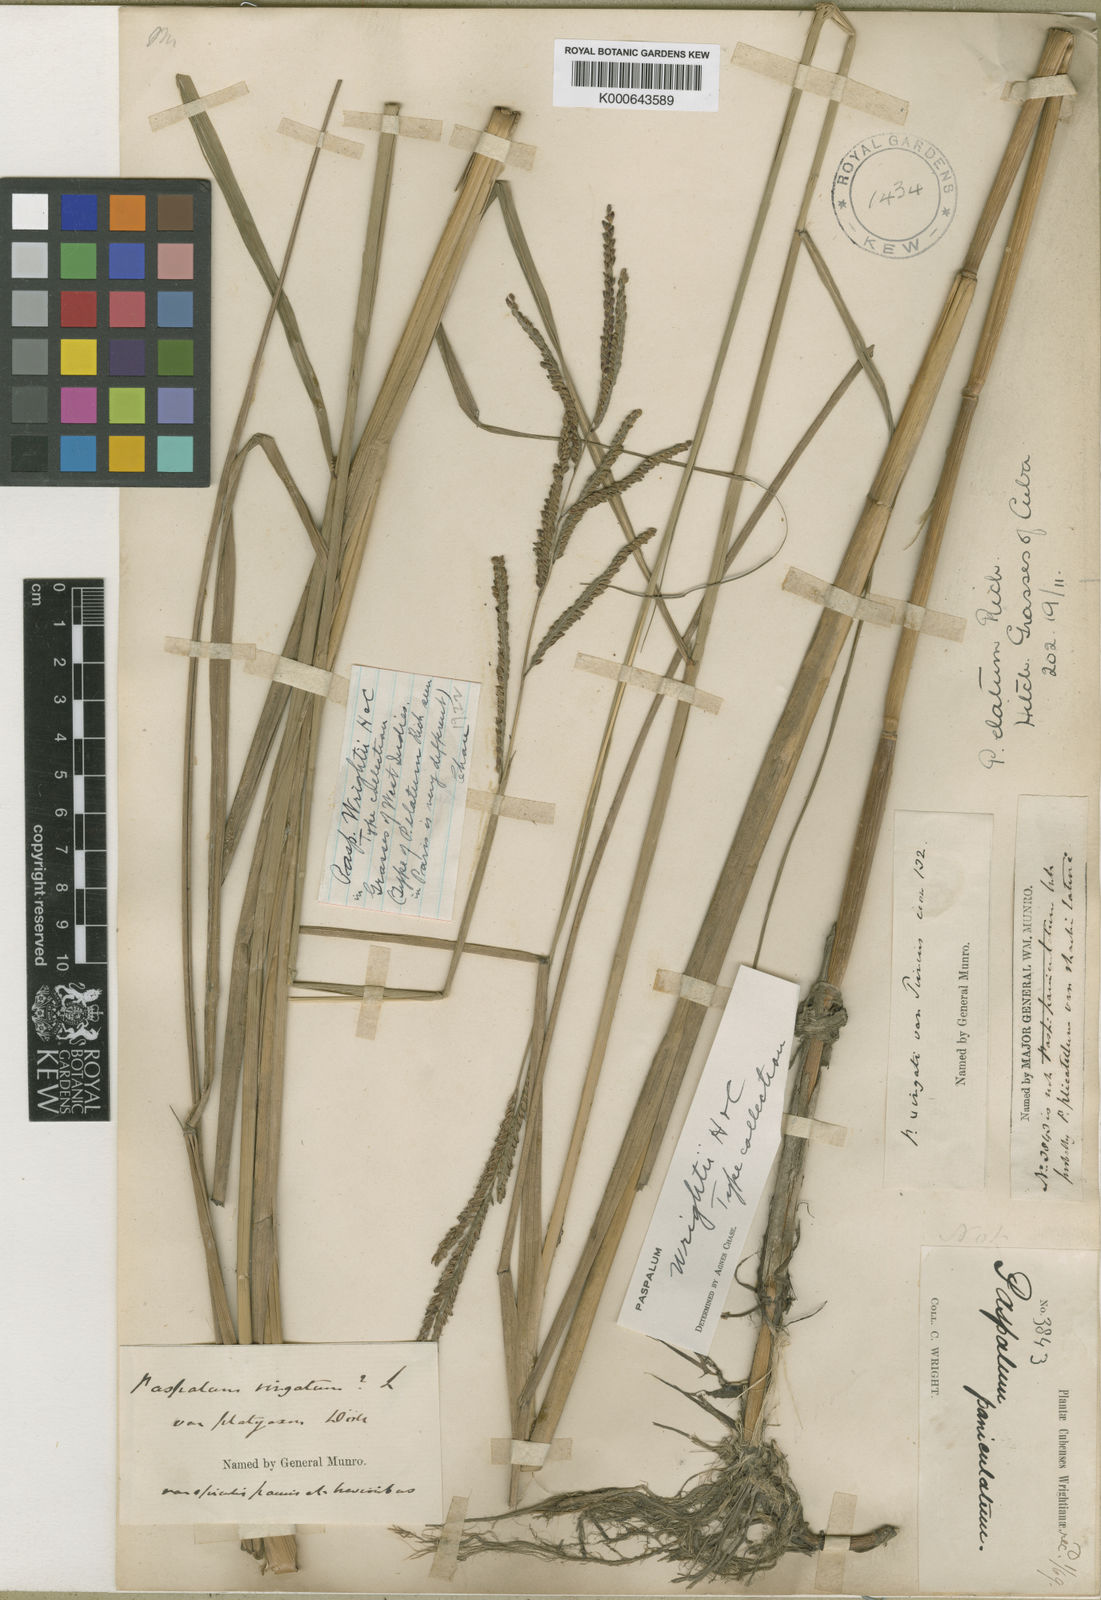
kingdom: Plantae
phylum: Tracheophyta
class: Liliopsida
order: Poales
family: Poaceae
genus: Paspalum
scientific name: Paspalum wrightii
